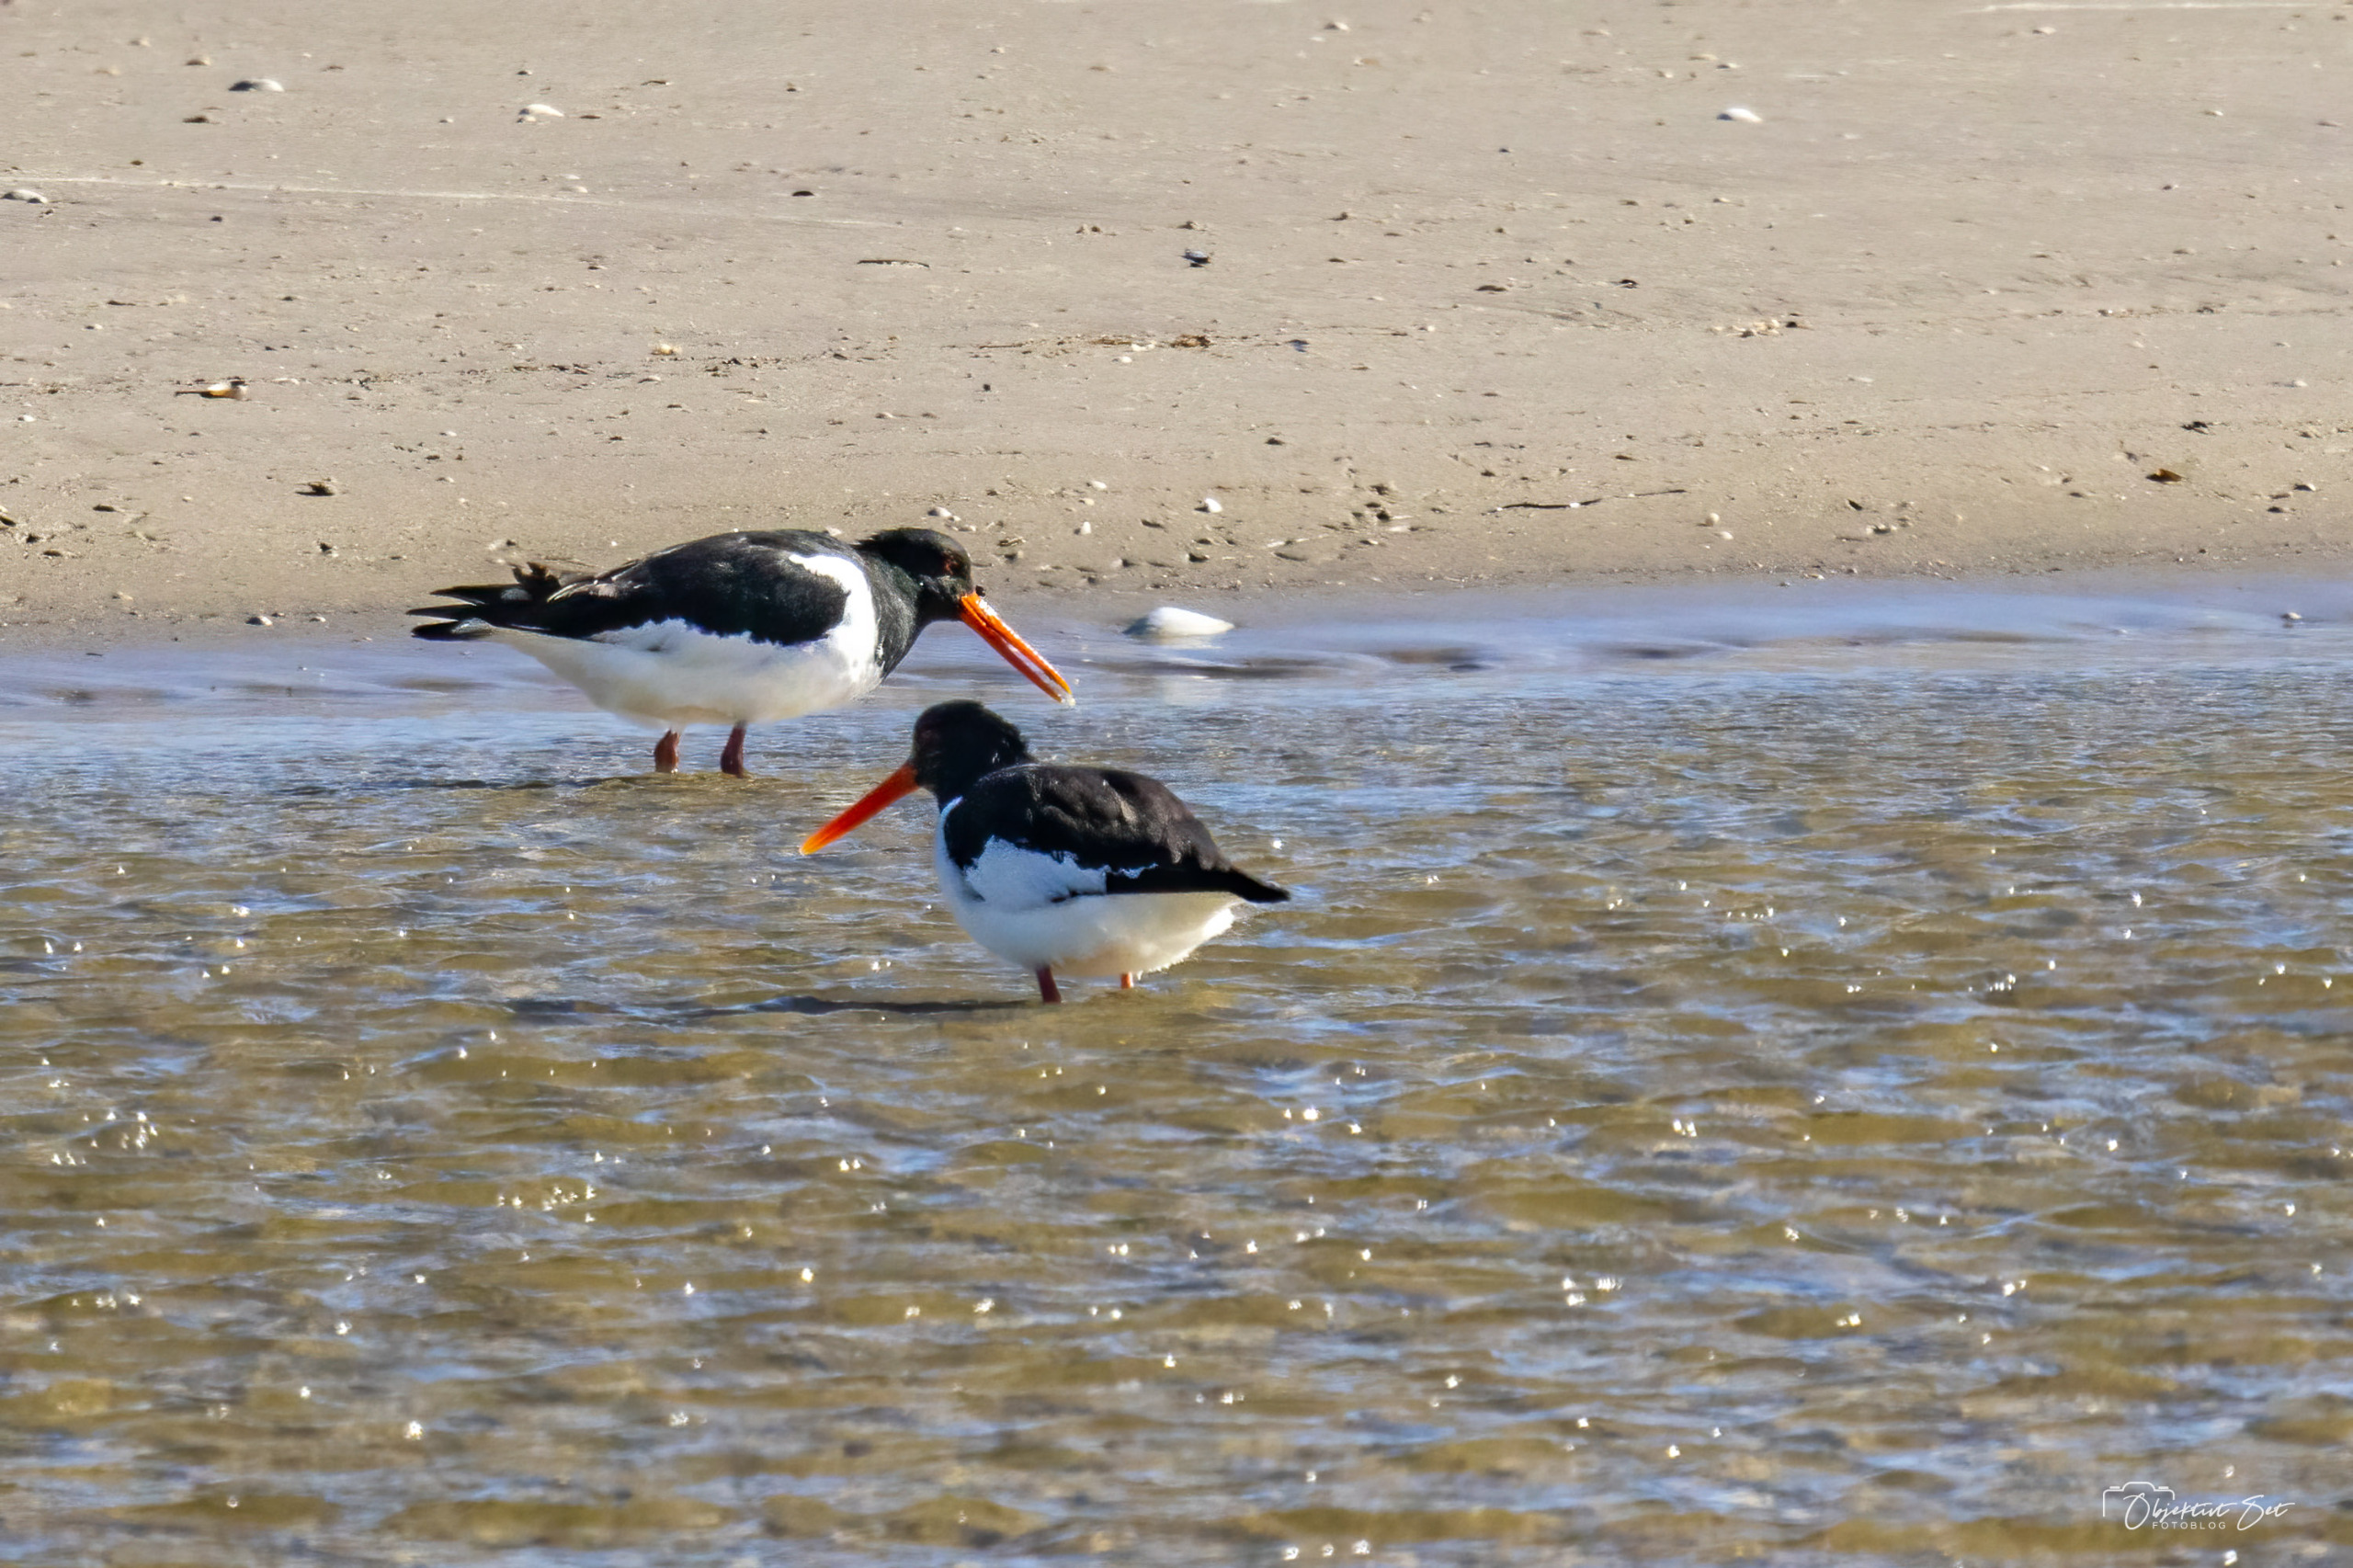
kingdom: Animalia
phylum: Chordata
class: Aves
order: Charadriiformes
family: Haematopodidae
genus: Haematopus
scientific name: Haematopus ostralegus
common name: Strandskade
